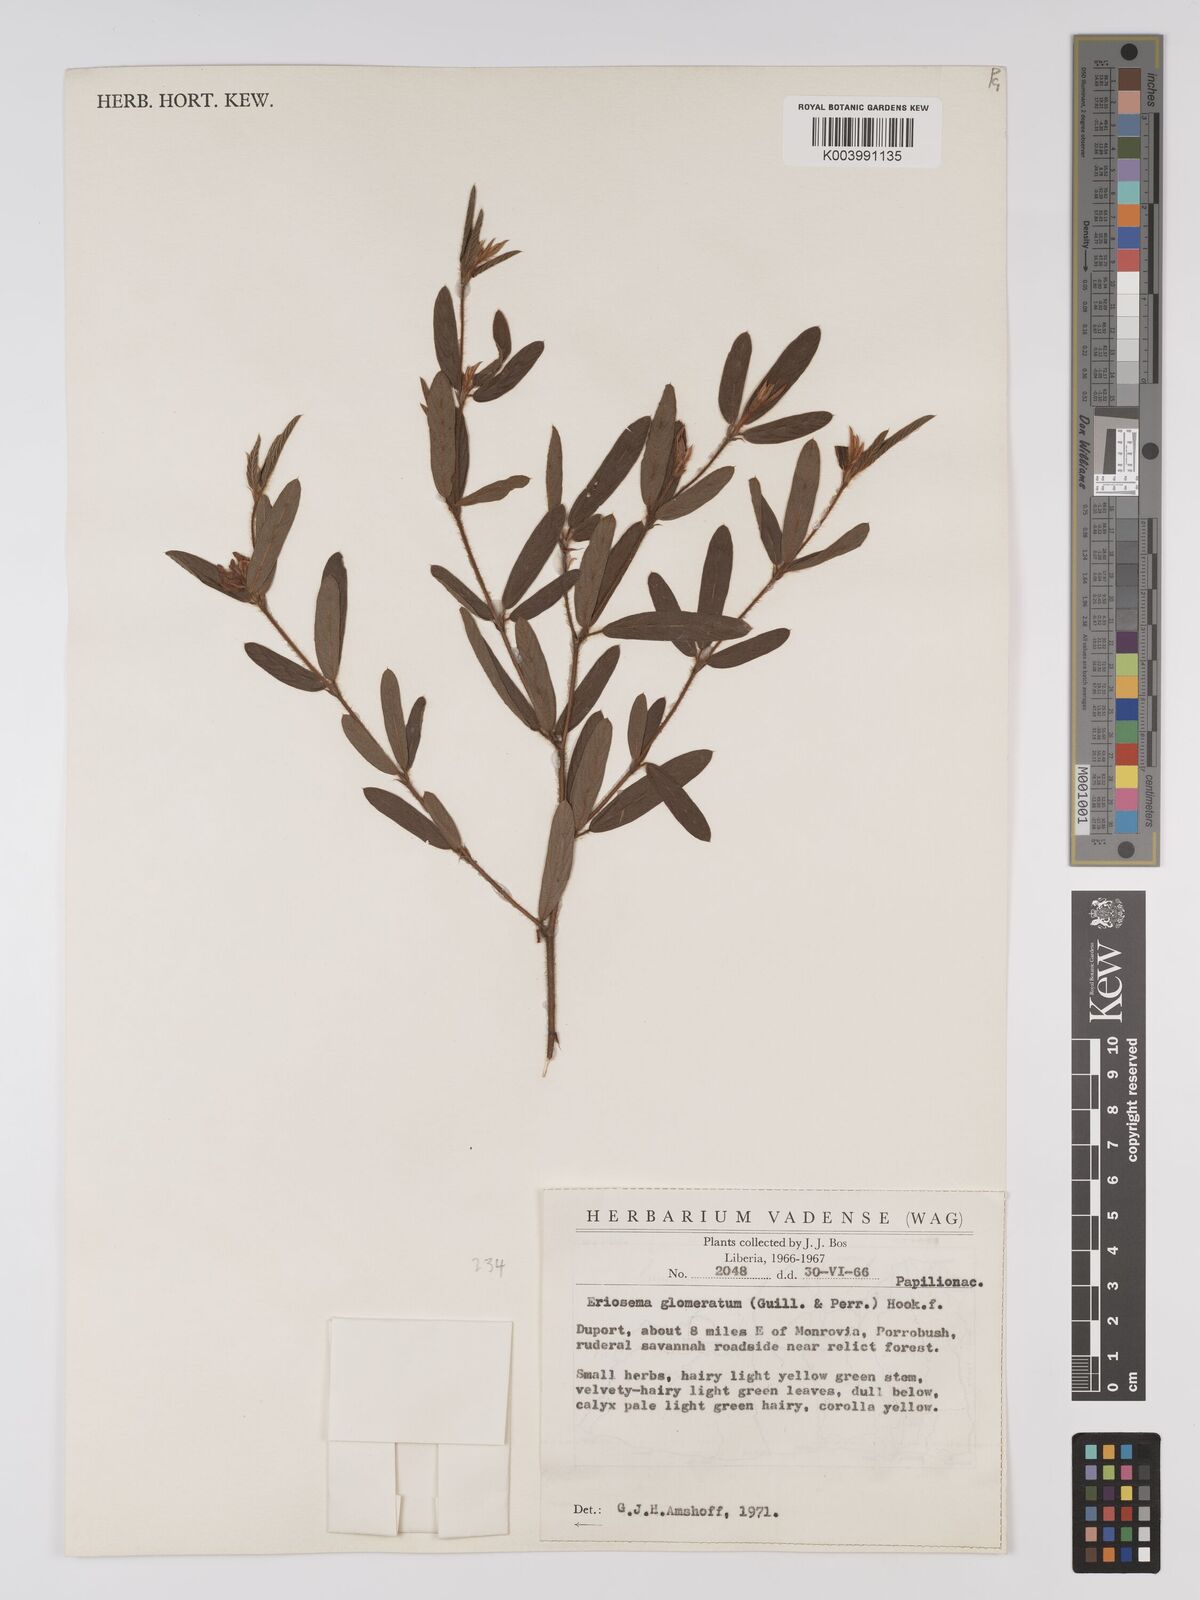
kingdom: Plantae
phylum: Tracheophyta
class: Magnoliopsida
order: Fabales
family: Fabaceae
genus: Eriosema
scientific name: Eriosema glomeratum
